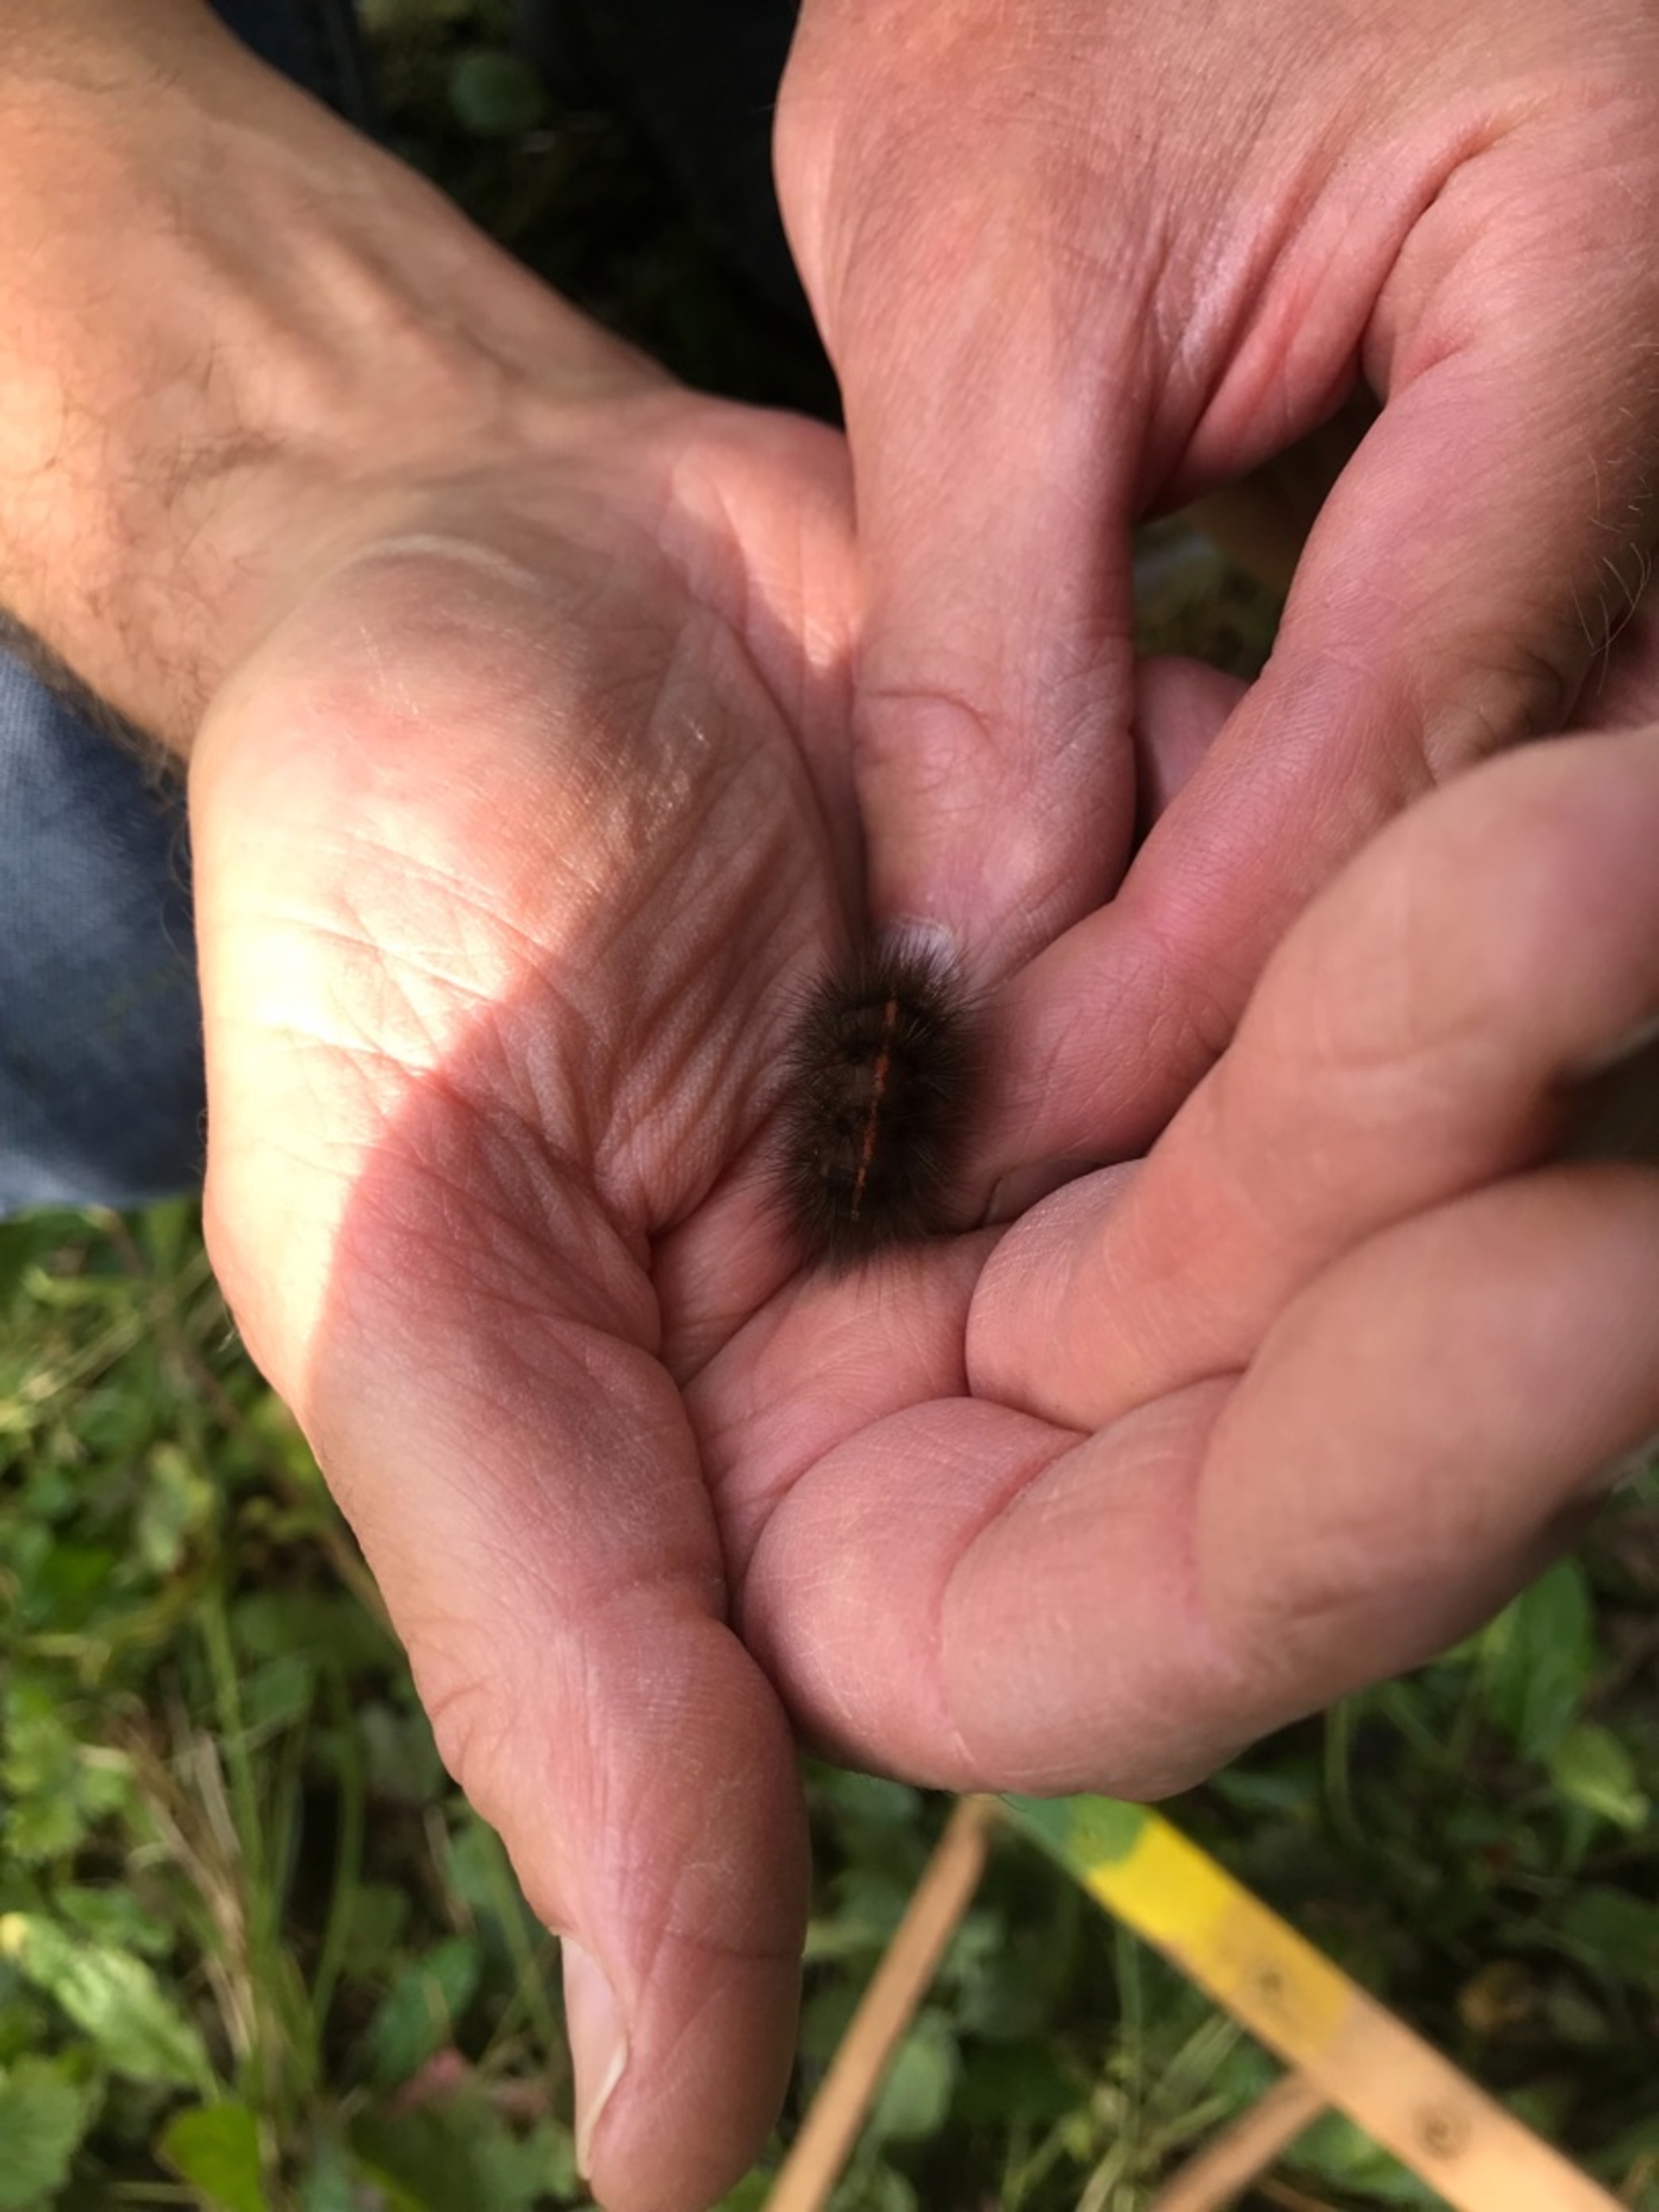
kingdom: Animalia
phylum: Arthropoda
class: Insecta
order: Lepidoptera
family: Erebidae
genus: Phragmatobia
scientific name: Phragmatobia fuliginosa
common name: Kanelbjørn
